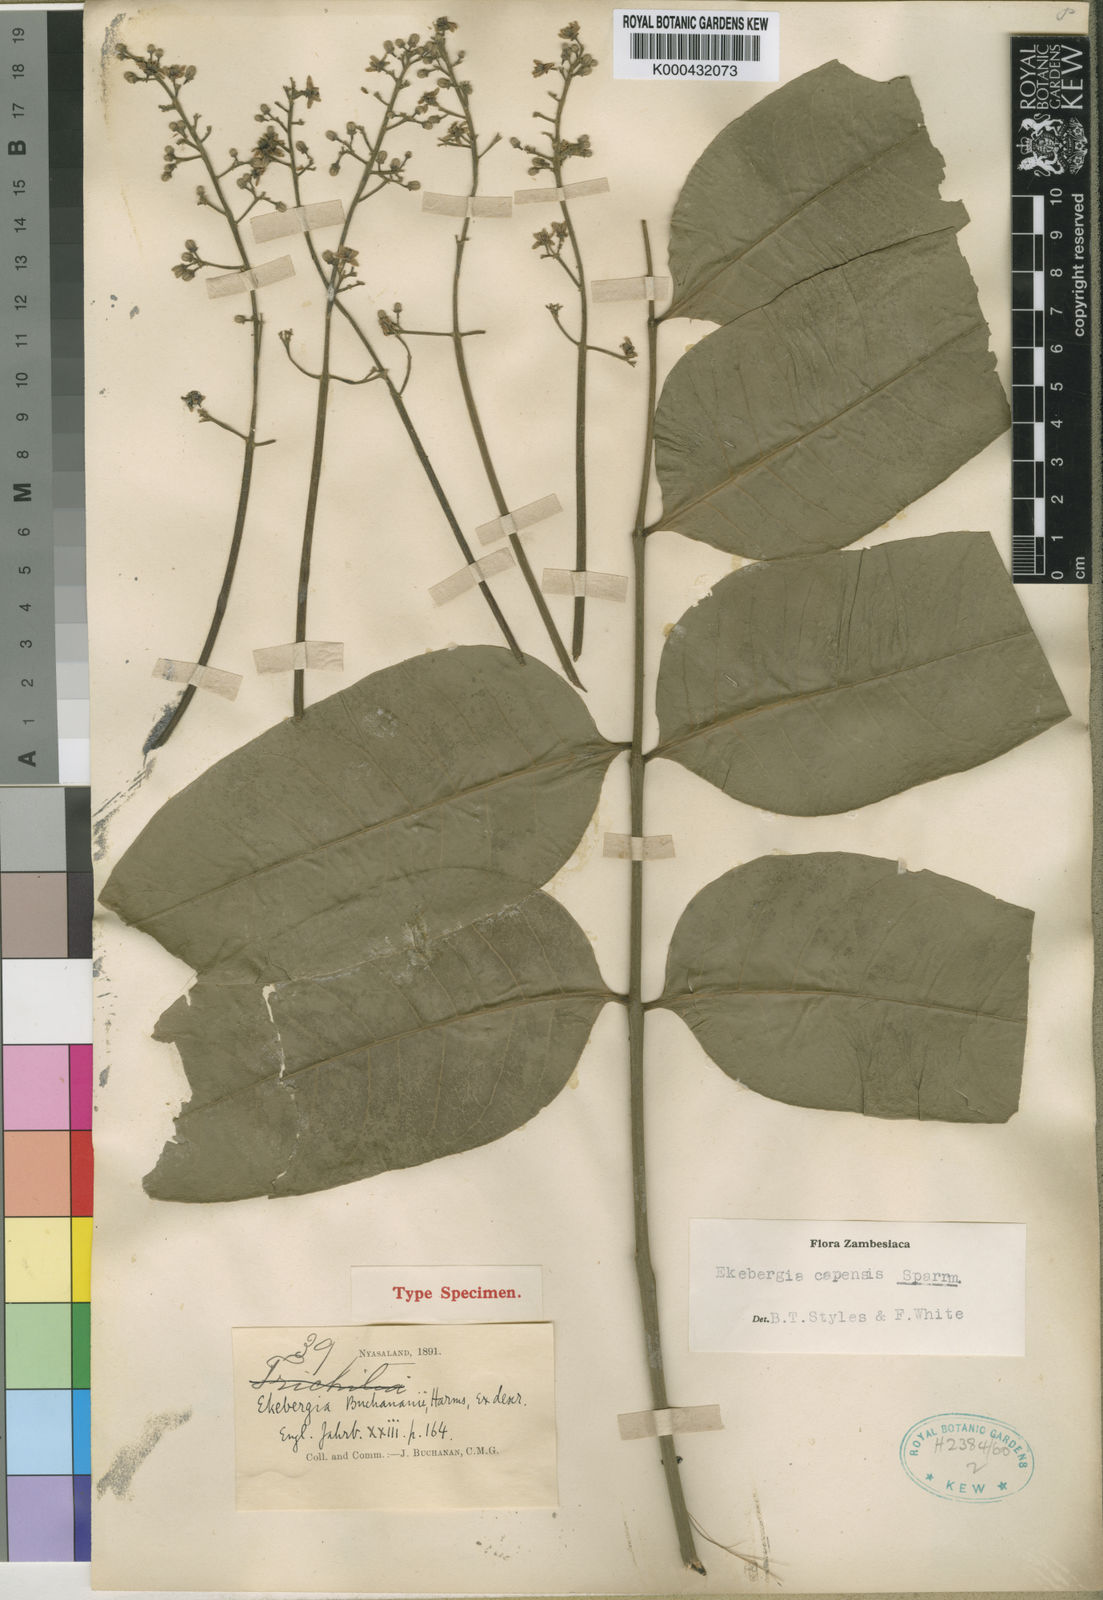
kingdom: Plantae
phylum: Tracheophyta
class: Magnoliopsida
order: Sapindales
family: Meliaceae
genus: Ekebergia
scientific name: Ekebergia capensis
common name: Cape-ash
